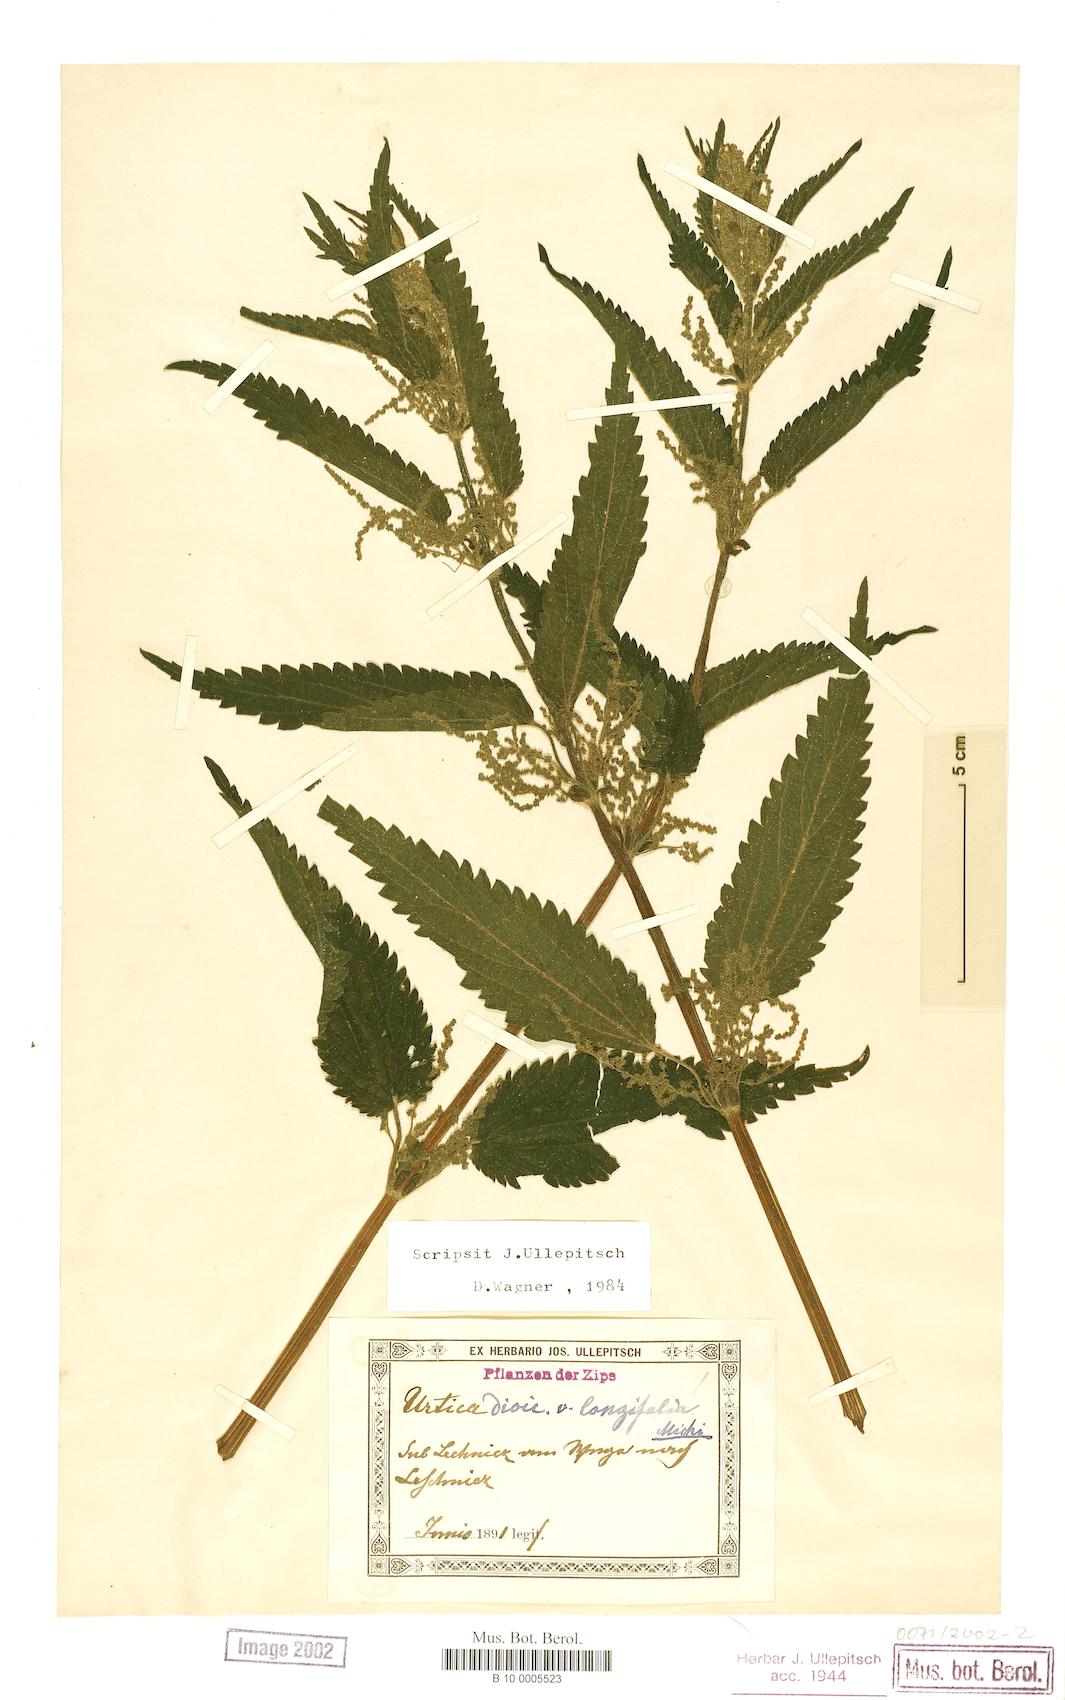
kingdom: Plantae
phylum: Tracheophyta
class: Magnoliopsida
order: Rosales
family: Urticaceae
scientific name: Urticaceae
